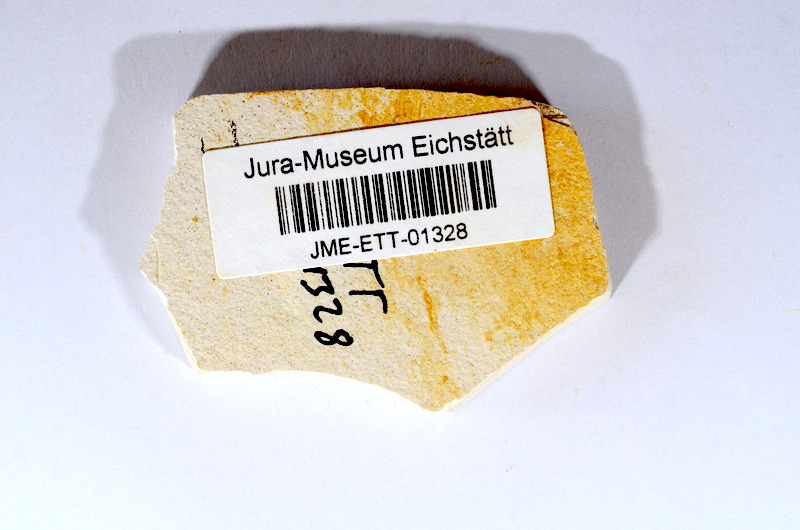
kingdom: Animalia
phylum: Chordata
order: Salmoniformes
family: Orthogonikleithridae
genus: Orthogonikleithrus
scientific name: Orthogonikleithrus hoelli
